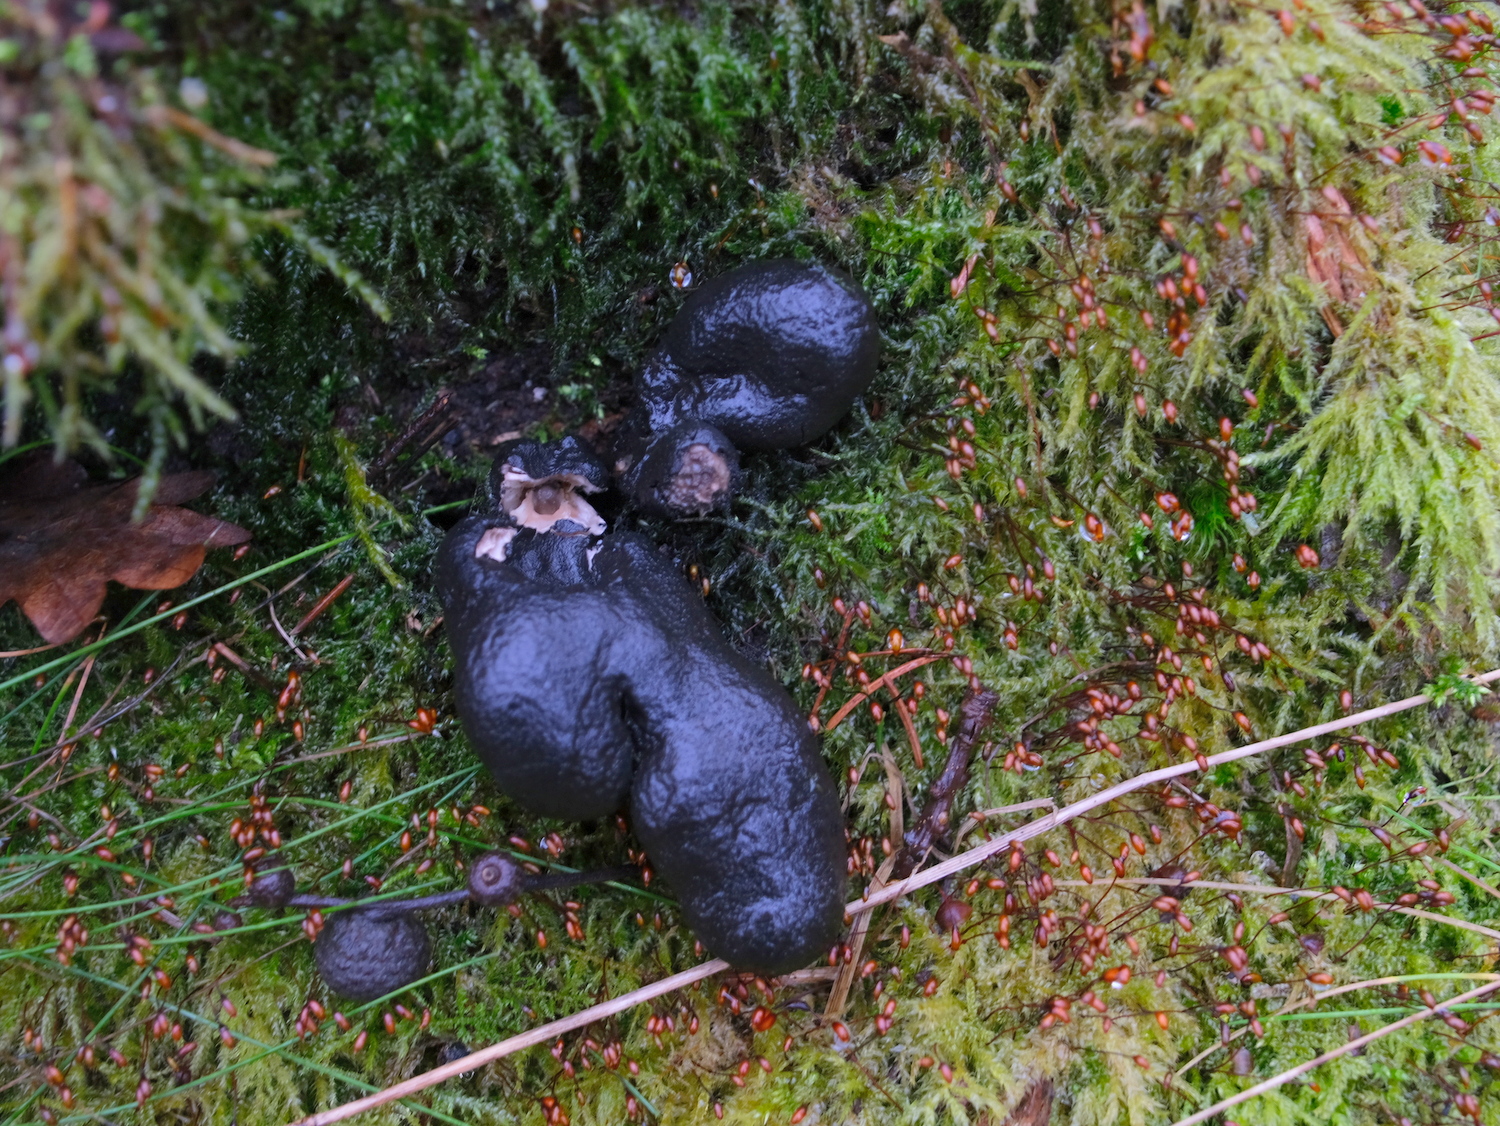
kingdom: Fungi
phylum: Ascomycota
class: Sordariomycetes
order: Xylariales
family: Xylariaceae
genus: Xylaria
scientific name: Xylaria polymorpha
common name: kølle-stødsvamp
